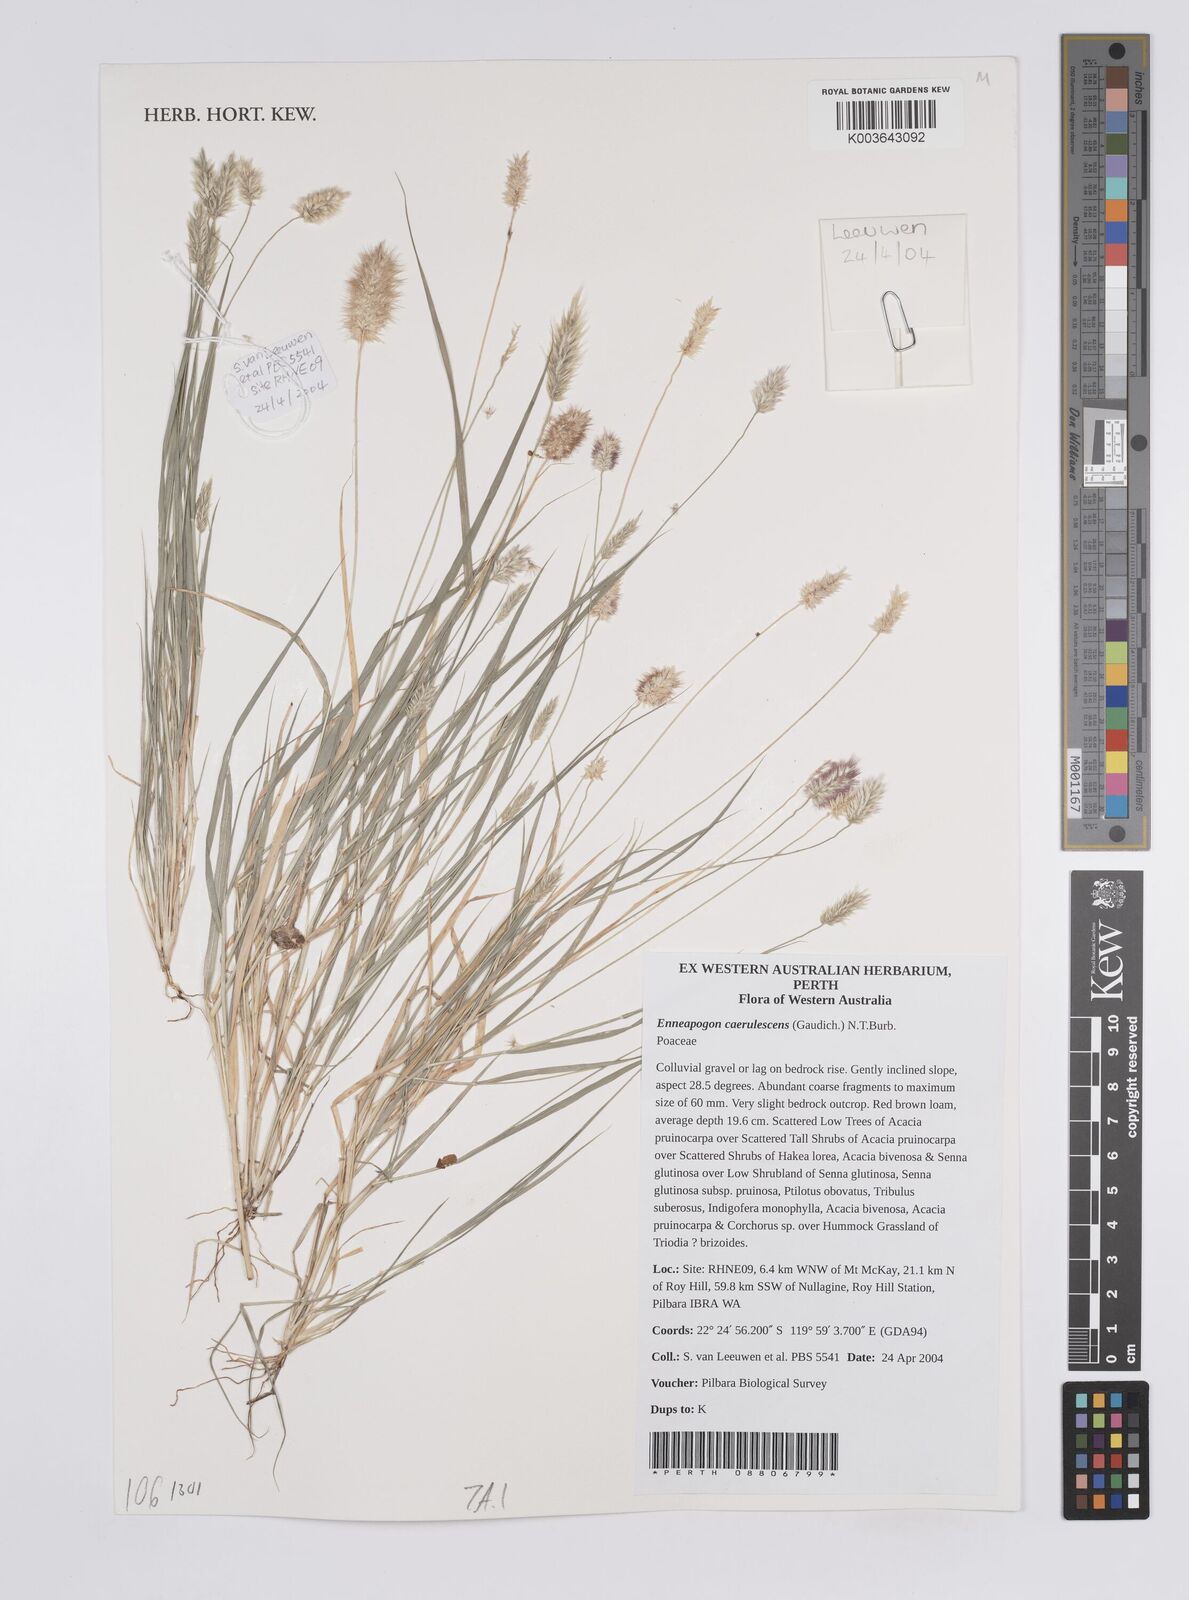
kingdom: Plantae
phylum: Tracheophyta
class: Liliopsida
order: Poales
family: Poaceae
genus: Enneapogon
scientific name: Enneapogon caerulescens
